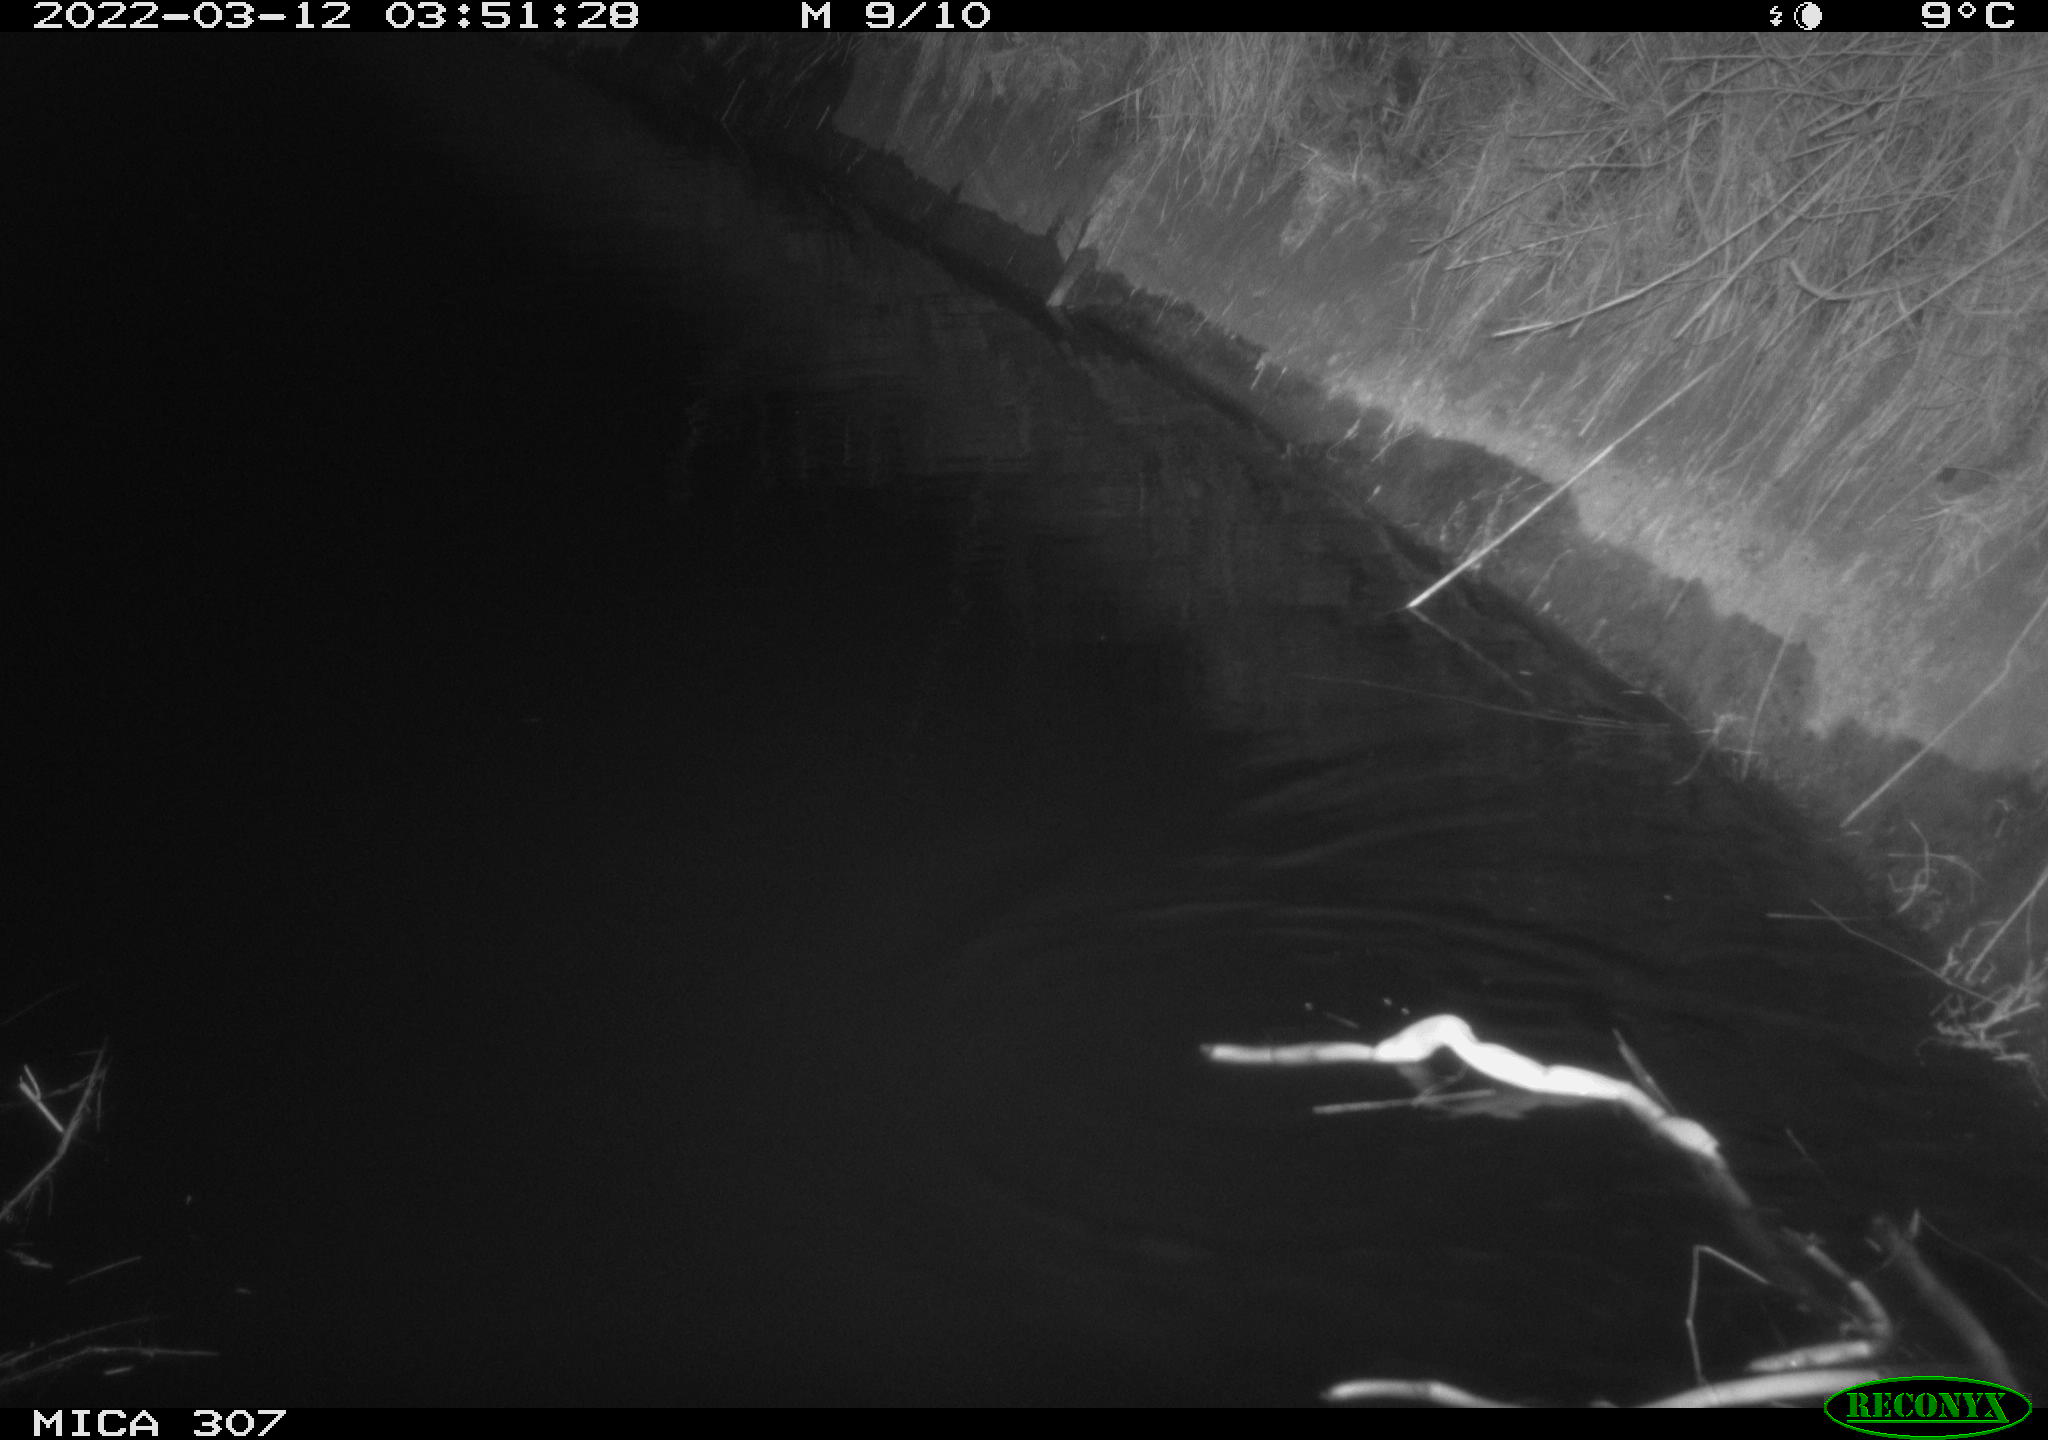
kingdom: Animalia
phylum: Chordata
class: Mammalia
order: Rodentia
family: Muridae
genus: Rattus
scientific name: Rattus norvegicus
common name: Brown rat
